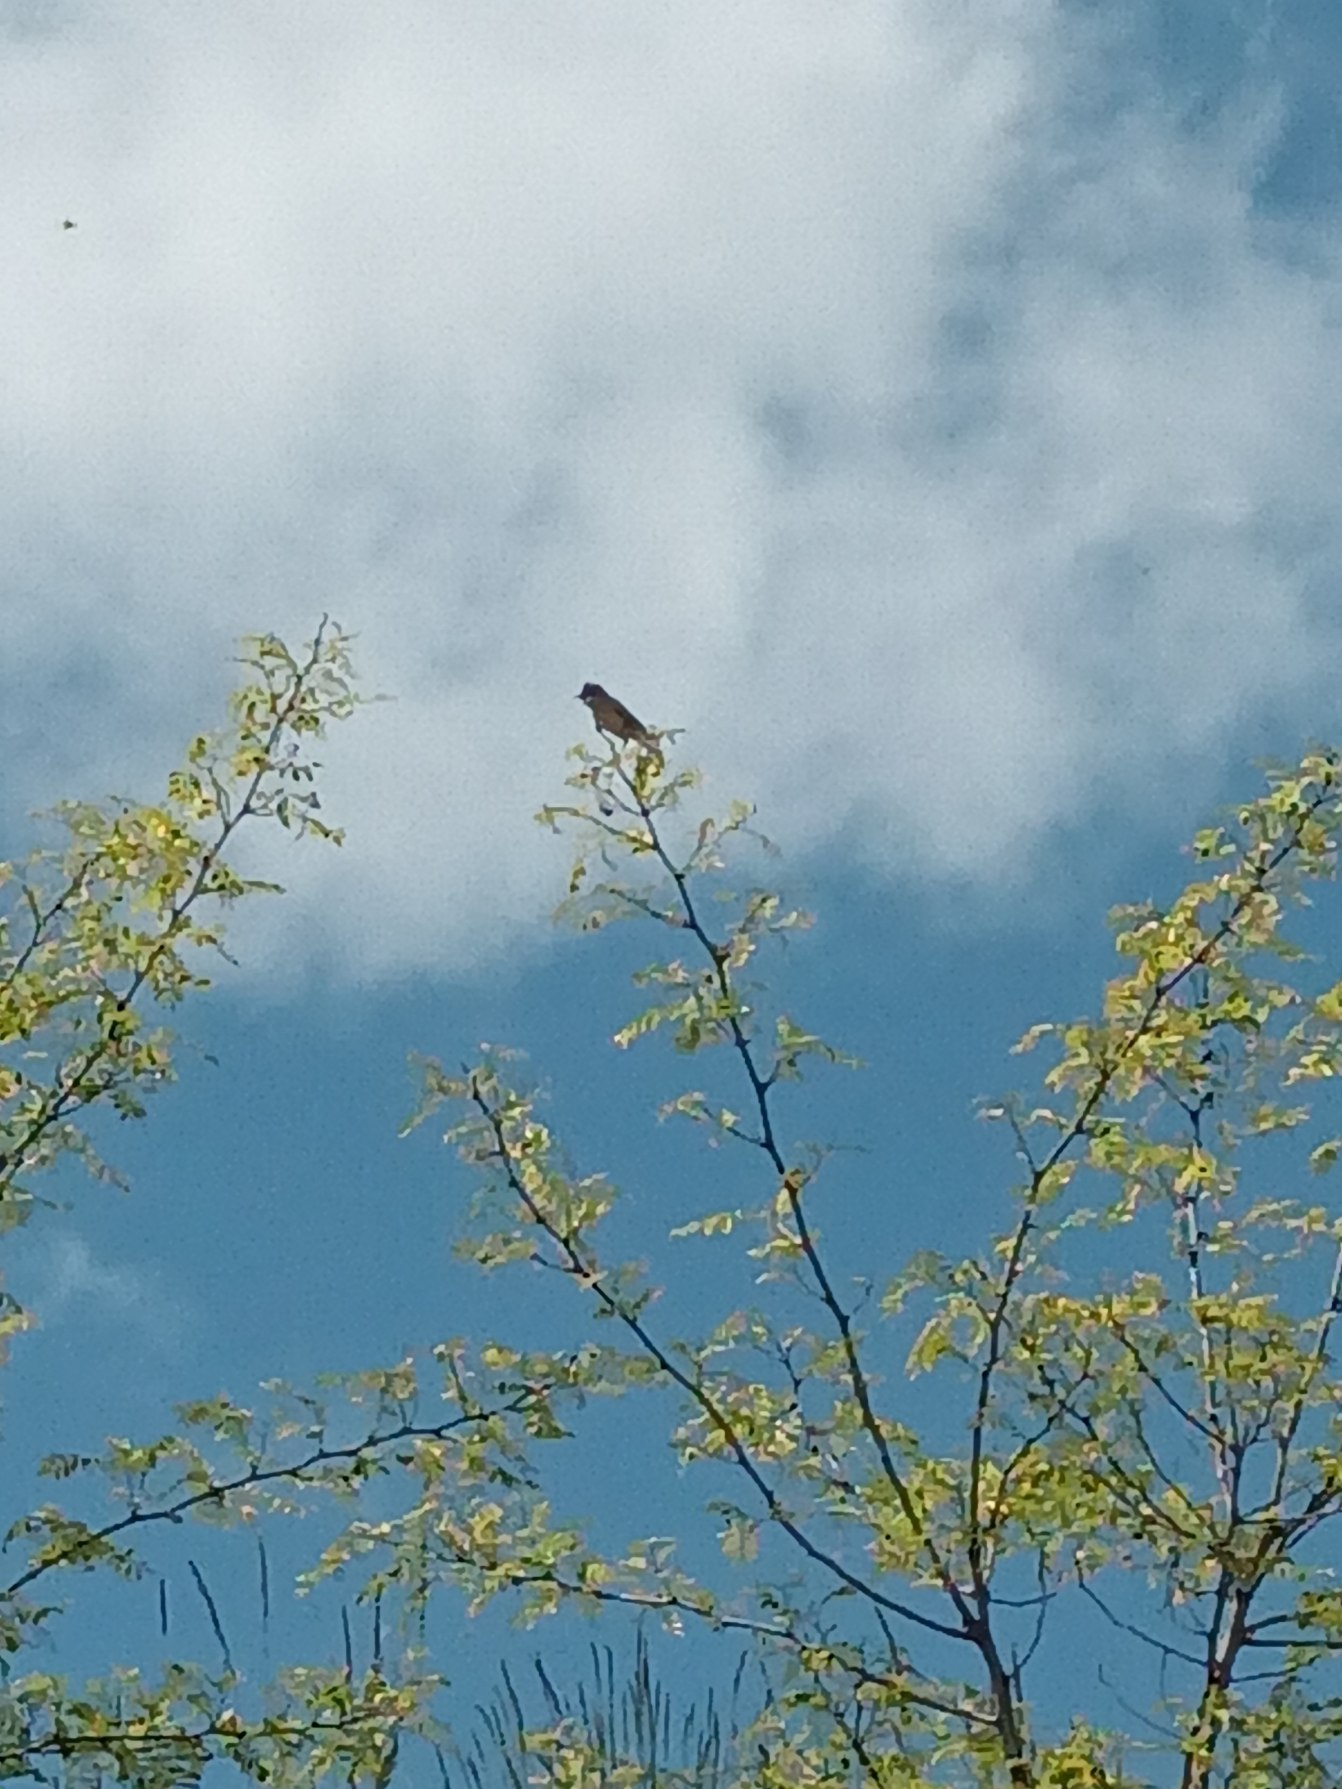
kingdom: Animalia
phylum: Chordata
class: Aves
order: Passeriformes
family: Sylviidae
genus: Sylvia
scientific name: Sylvia communis
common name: Tornsanger
